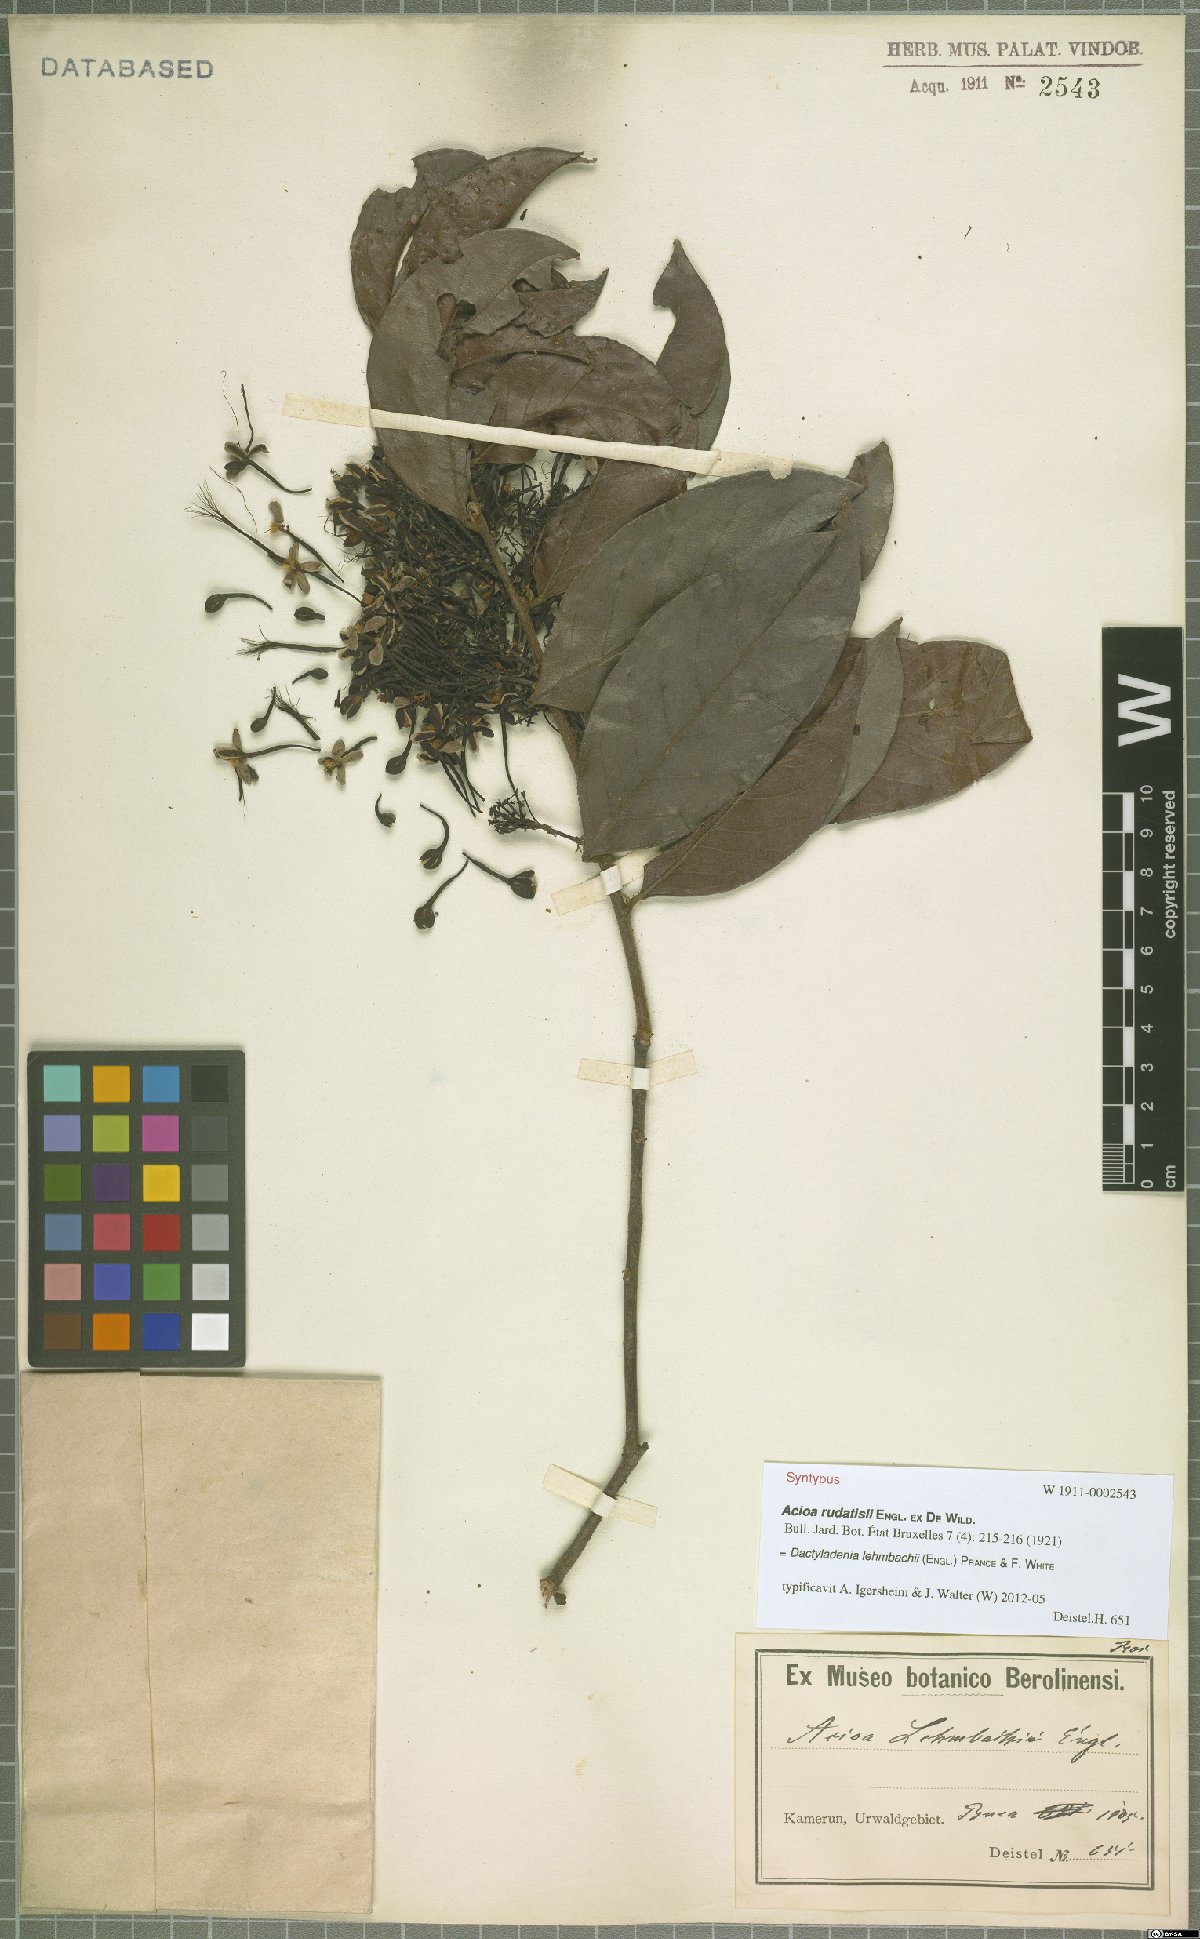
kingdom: Plantae
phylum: Tracheophyta
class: Magnoliopsida
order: Malpighiales
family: Chrysobalanaceae
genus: Dactyladenia
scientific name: Dactyladenia lehmbachii
